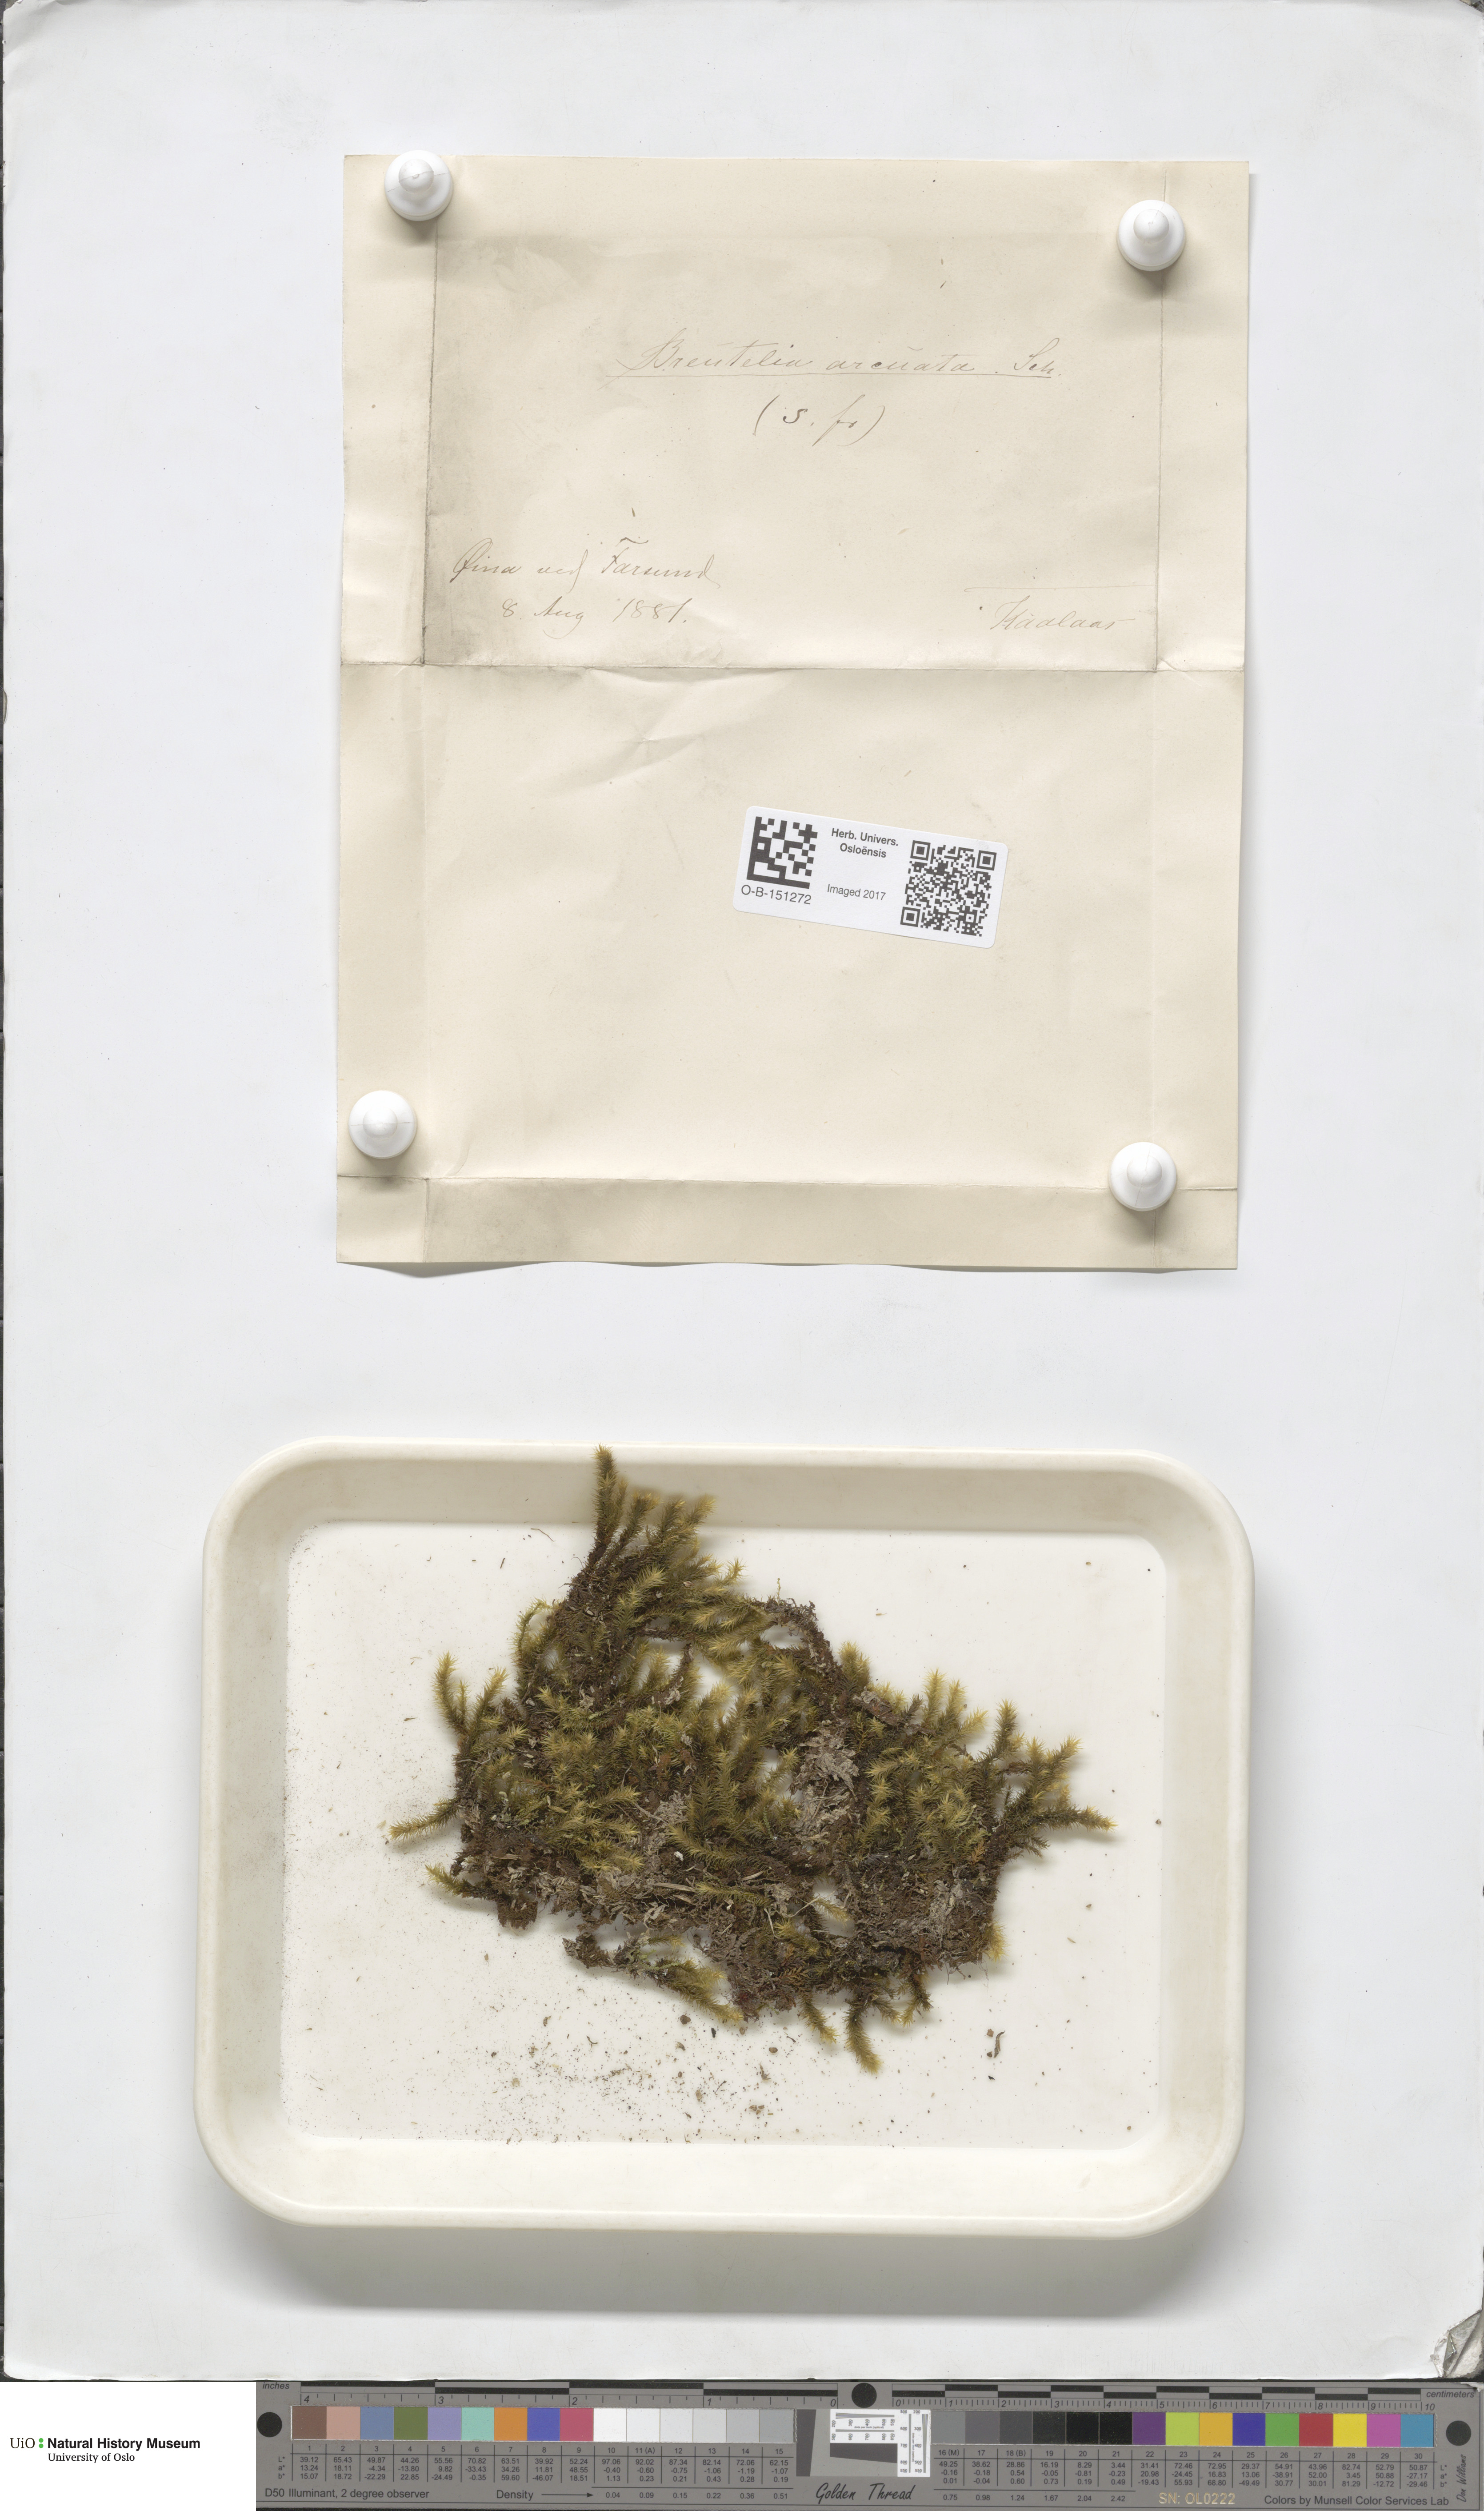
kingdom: Plantae
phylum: Bryophyta
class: Bryopsida
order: Bartramiales
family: Bartramiaceae
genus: Breutelia
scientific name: Breutelia chrysocoma
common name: Bottle-brush moss
